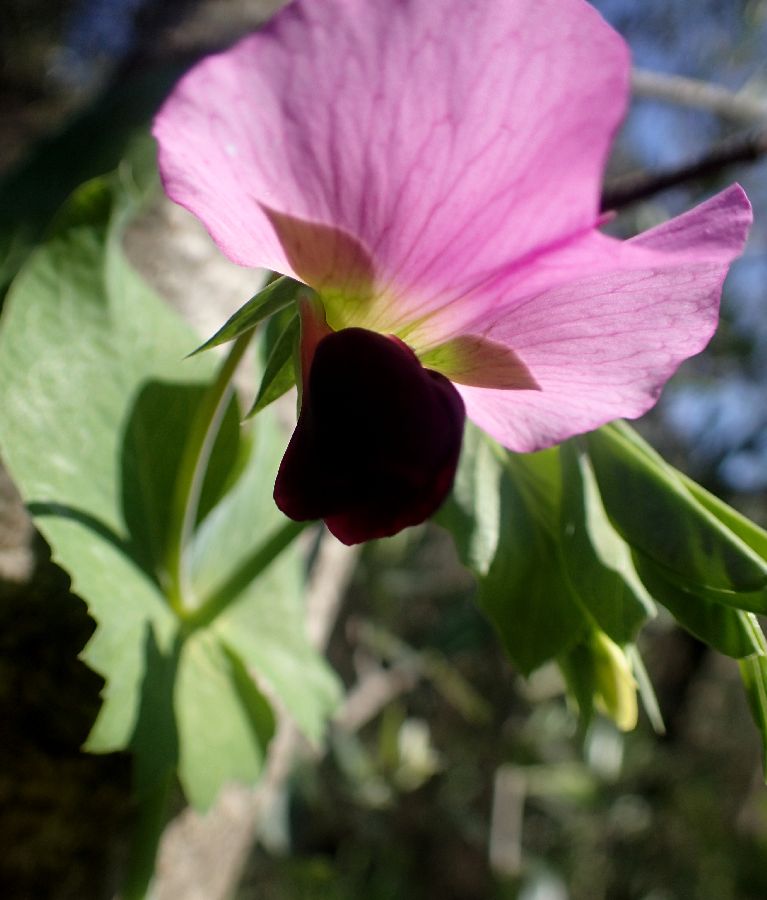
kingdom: Plantae
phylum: Tracheophyta
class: Magnoliopsida
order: Fabales
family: Fabaceae
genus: Lathyrus
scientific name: Lathyrus oleraceus
